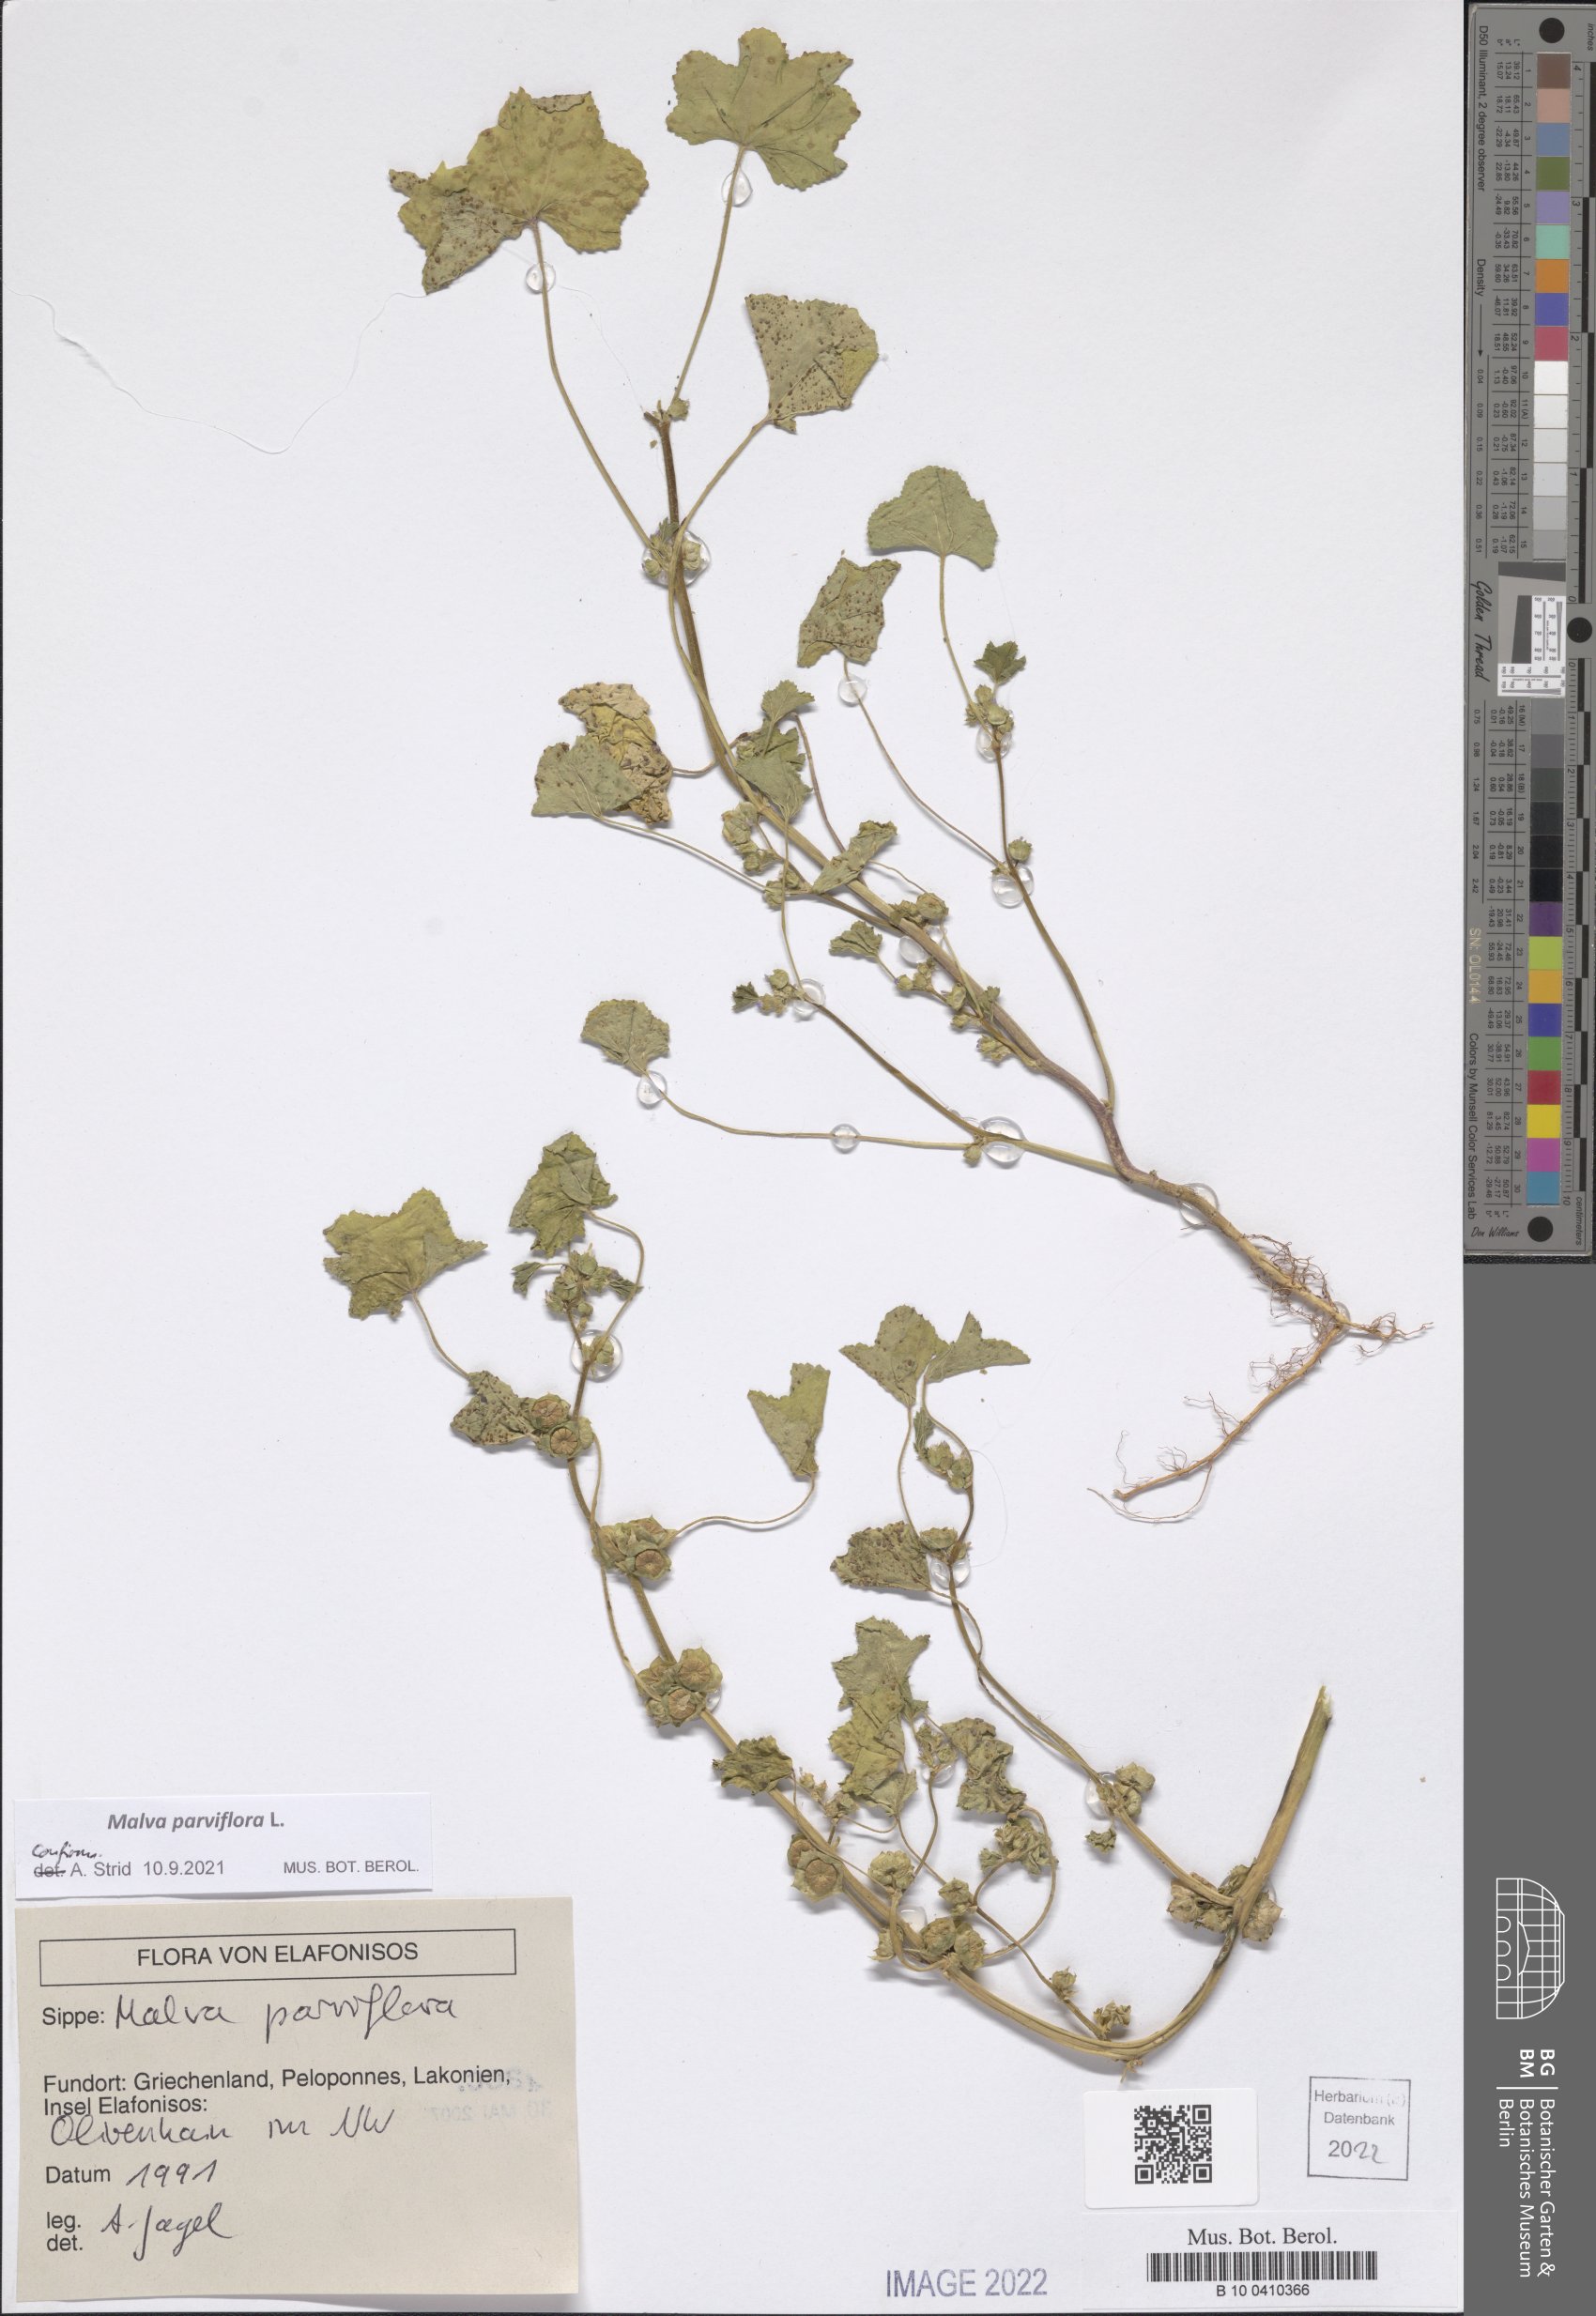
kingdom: Plantae
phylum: Tracheophyta
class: Magnoliopsida
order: Malvales
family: Malvaceae
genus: Malva
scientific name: Malva parviflora
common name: Least mallow
